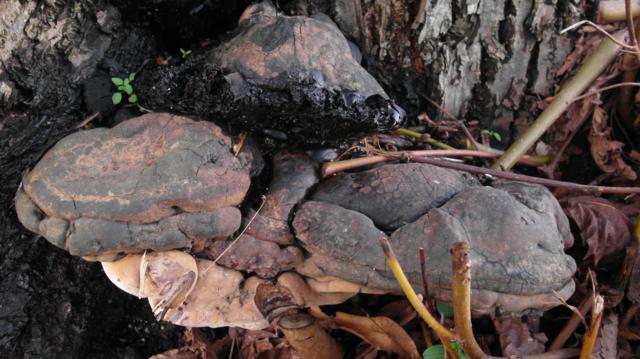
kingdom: Fungi
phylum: Basidiomycota
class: Agaricomycetes
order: Polyporales
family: Polyporaceae
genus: Ganoderma
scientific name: Ganoderma adspersum
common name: grov lakporesvamp
